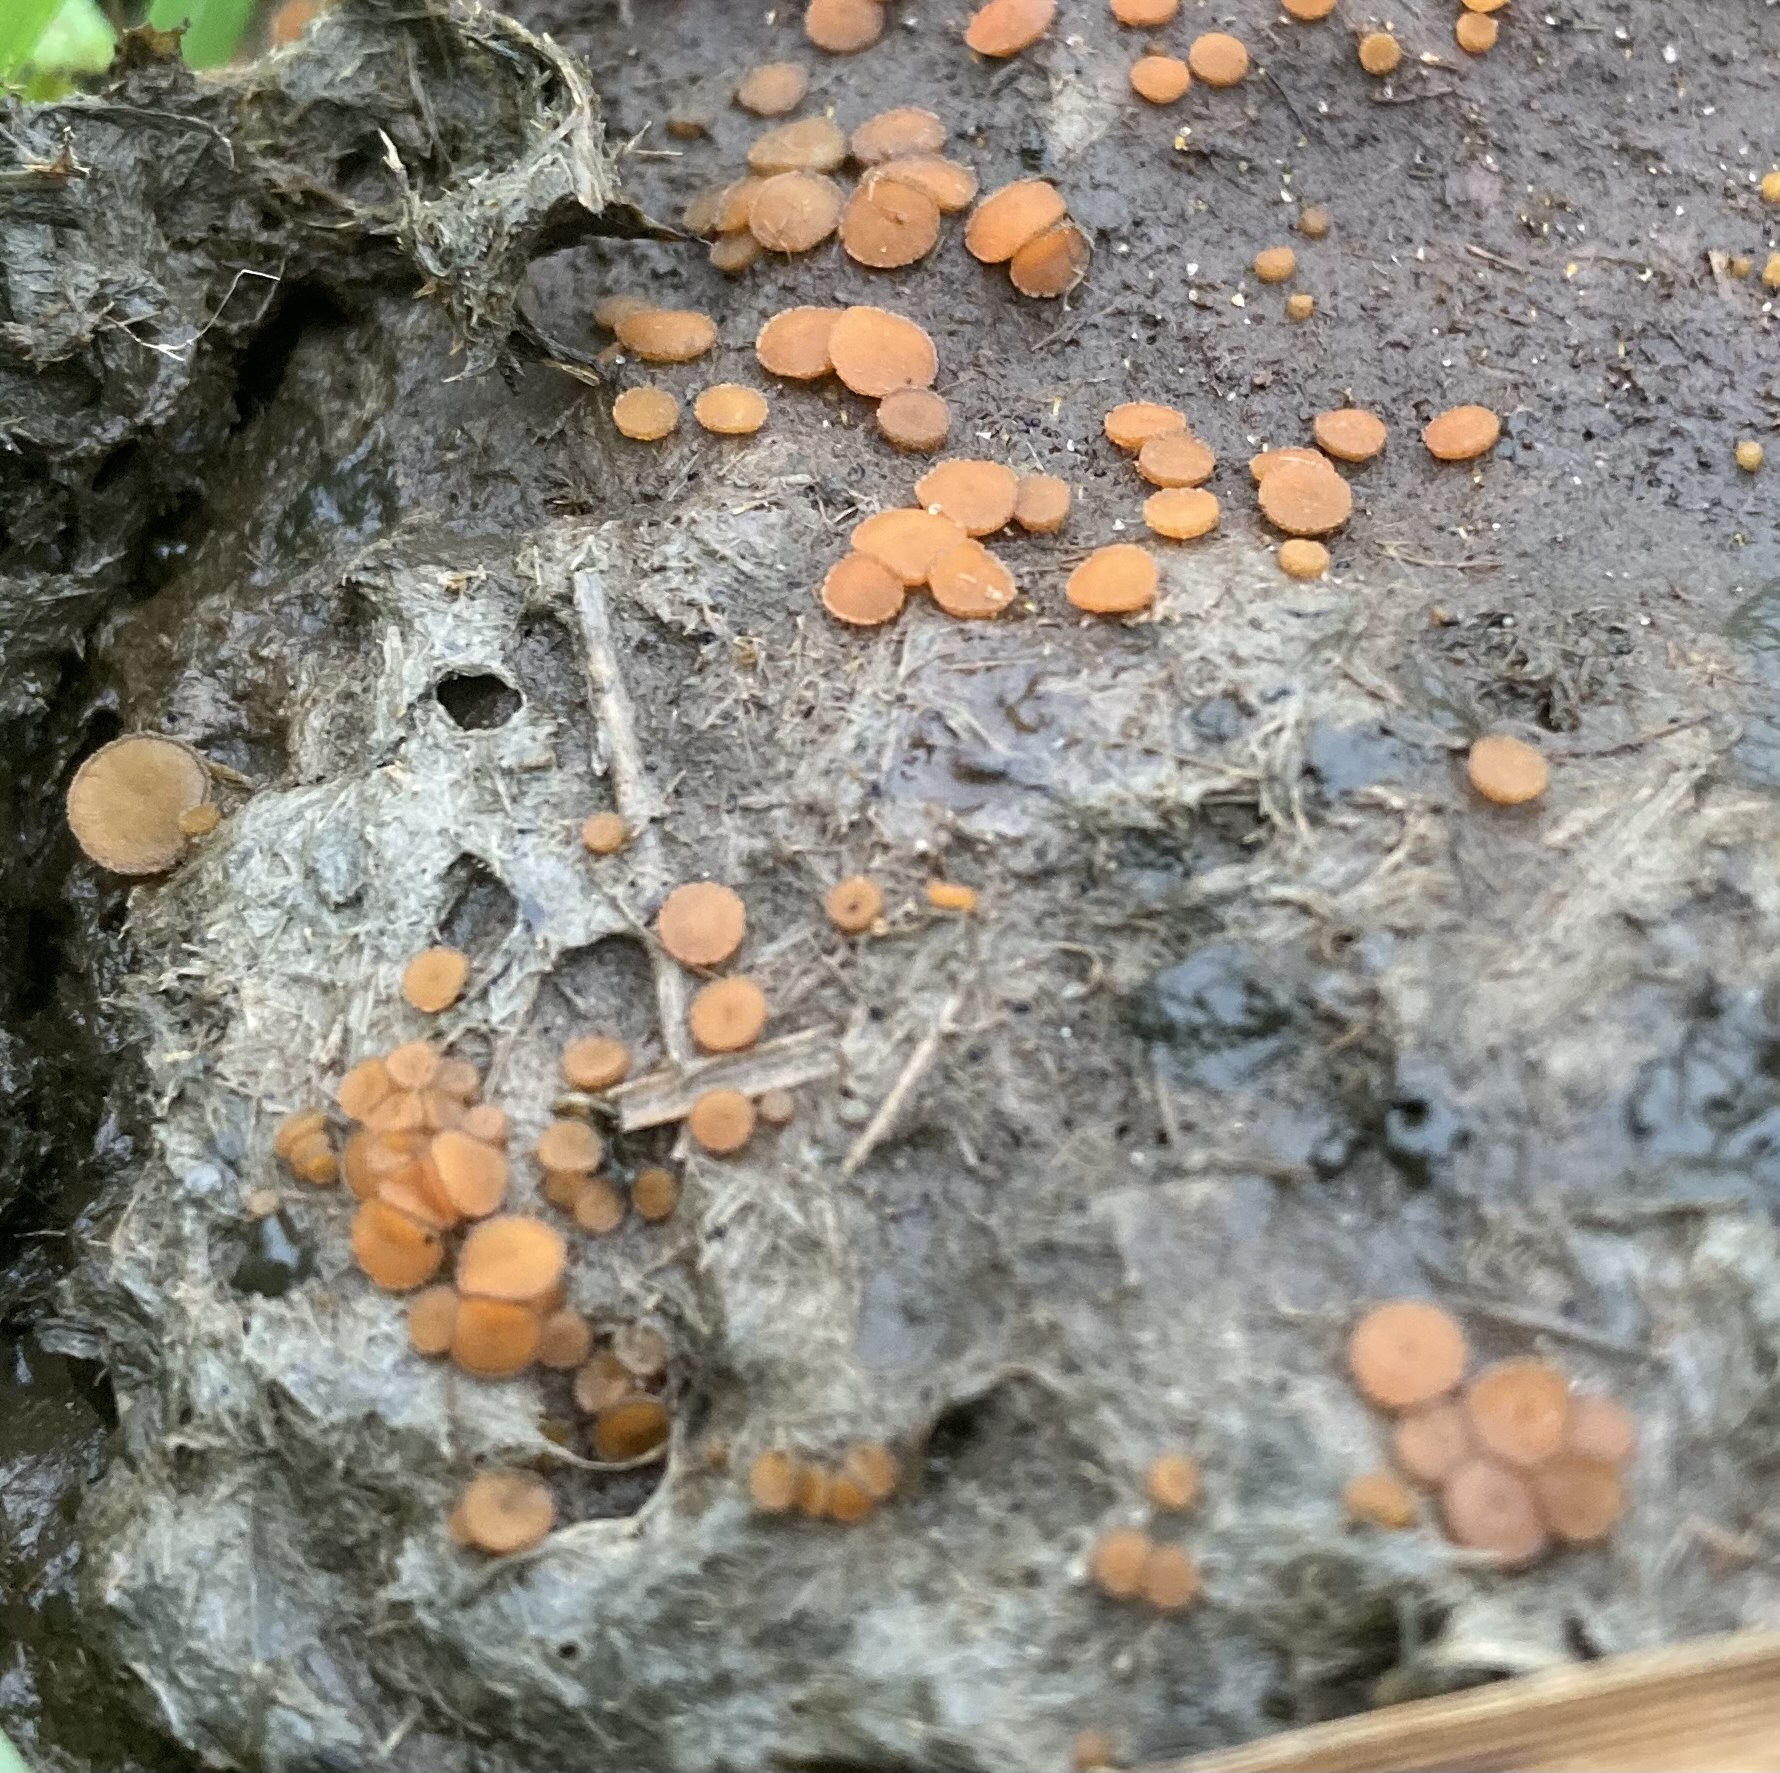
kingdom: Fungi
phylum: Ascomycota
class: Pezizomycetes
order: Pezizales
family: Pyronemataceae
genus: Cheilymenia
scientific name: Cheilymenia granulata
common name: møgbæger
